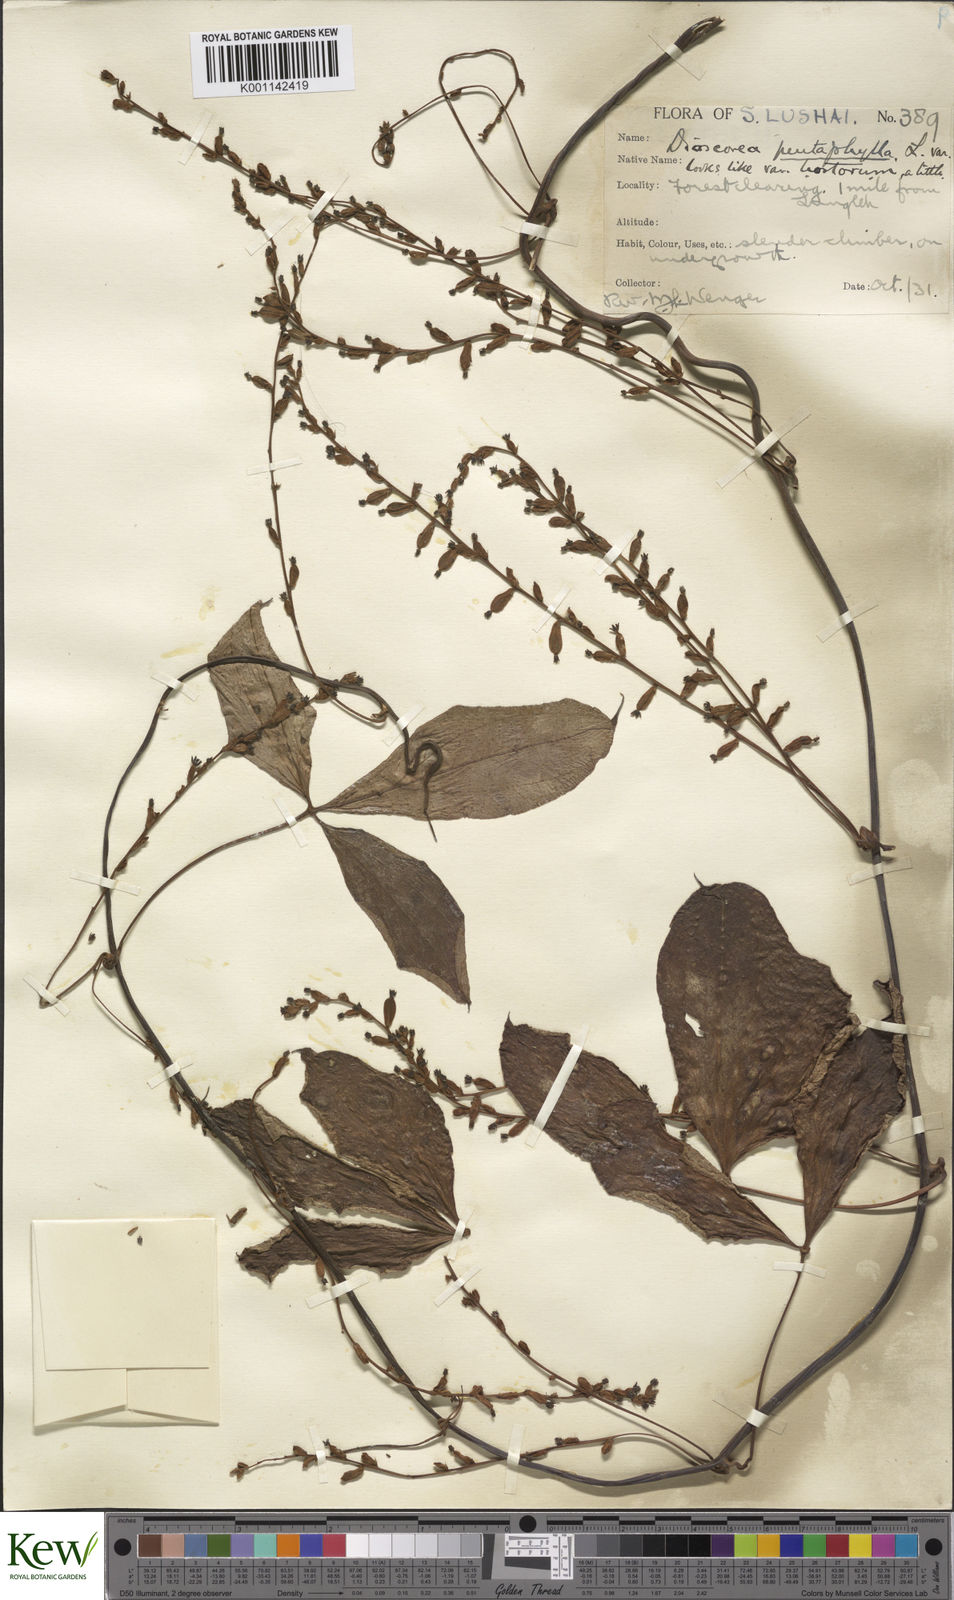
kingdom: Plantae
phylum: Tracheophyta
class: Liliopsida
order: Dioscoreales
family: Dioscoreaceae
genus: Dioscorea
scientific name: Dioscorea pentaphylla
